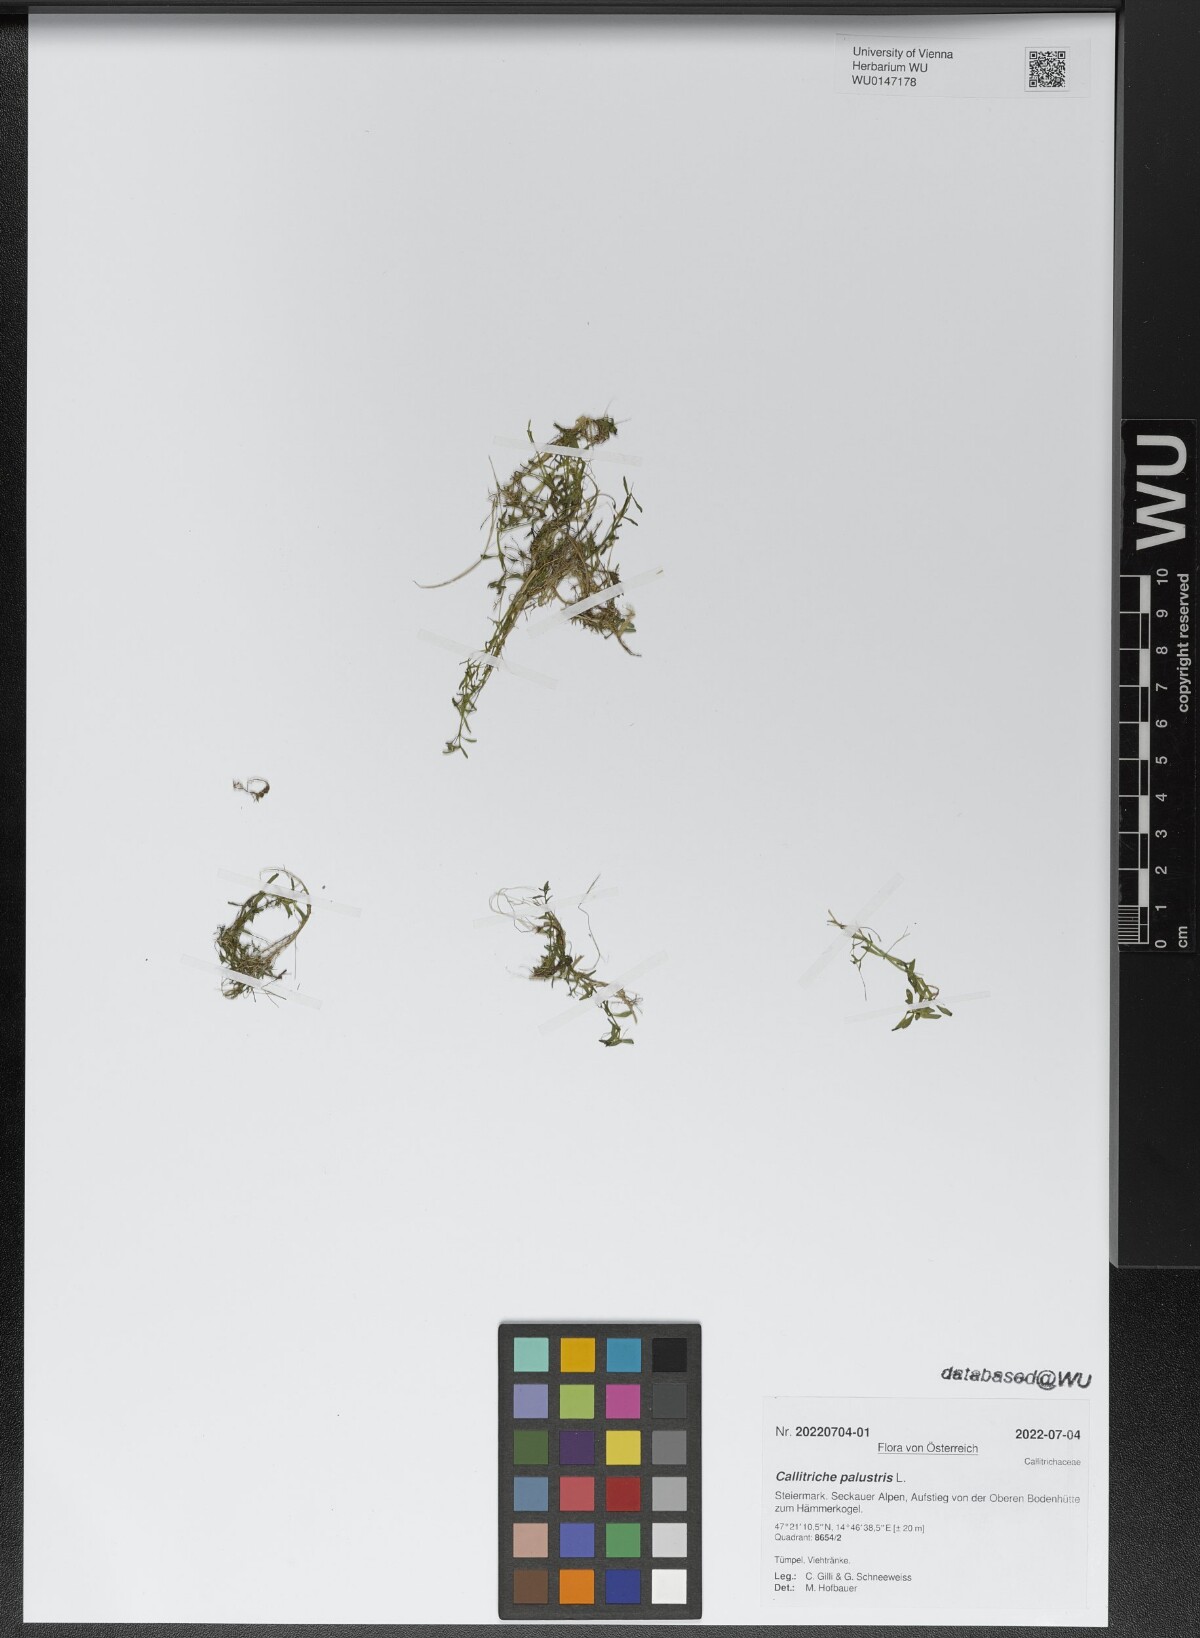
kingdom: Plantae
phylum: Tracheophyta
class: Magnoliopsida
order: Lamiales
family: Plantaginaceae
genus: Callitriche
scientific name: Callitriche palustris
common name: Spring water-starwort
